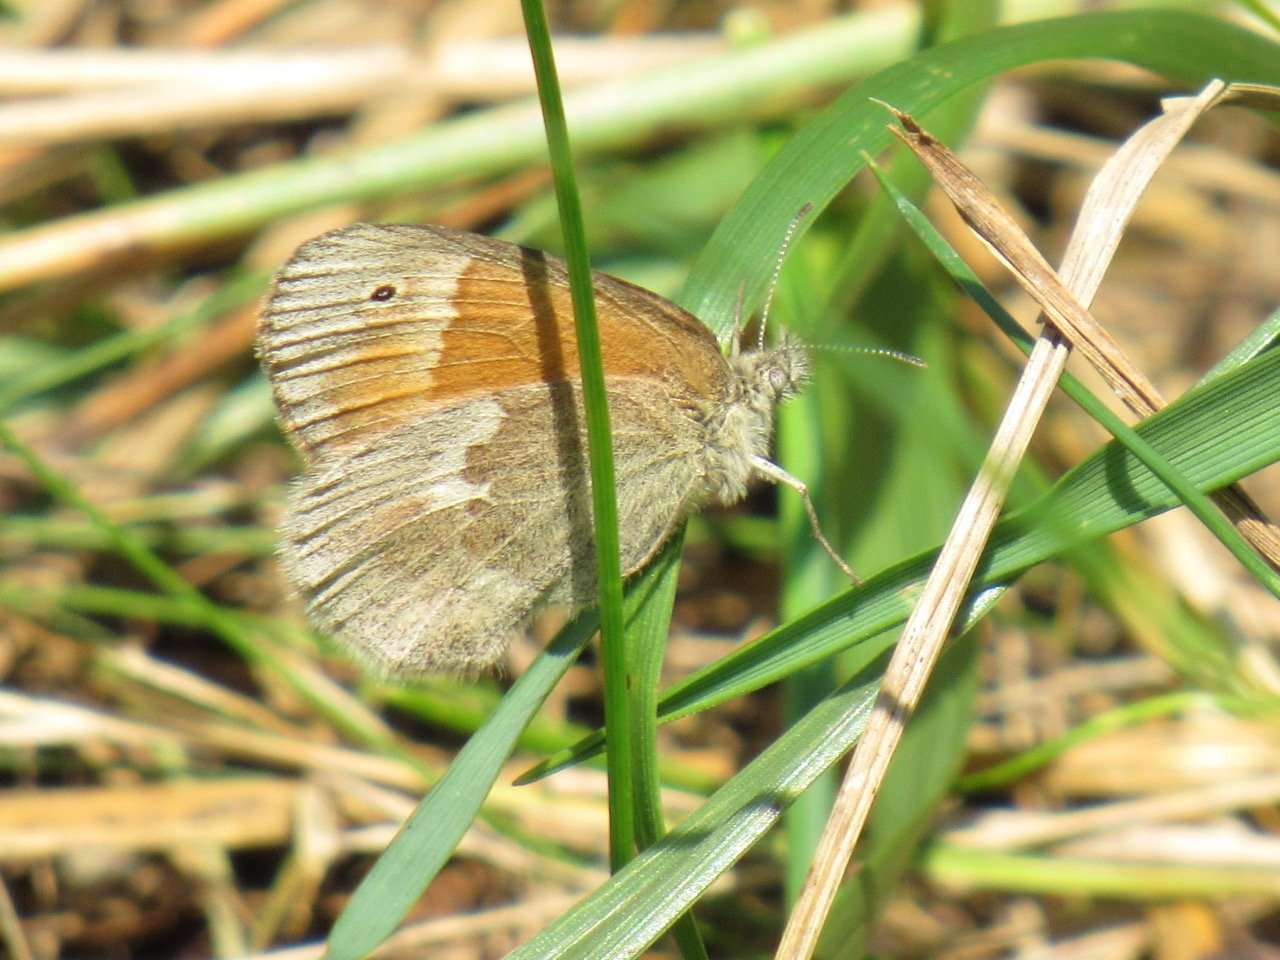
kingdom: Animalia
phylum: Arthropoda
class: Insecta
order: Lepidoptera
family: Nymphalidae
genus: Coenonympha
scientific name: Coenonympha tullia
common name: Large Heath
